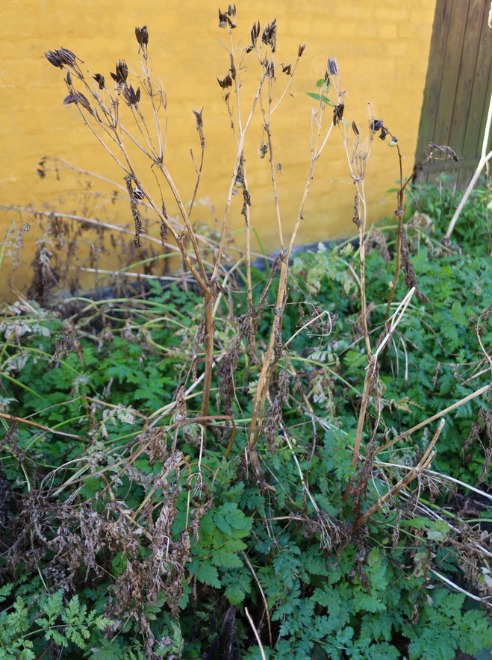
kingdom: Plantae
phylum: Tracheophyta
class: Magnoliopsida
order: Apiales
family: Apiaceae
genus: Myrrhis
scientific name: Myrrhis odorata
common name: Sødskærm
